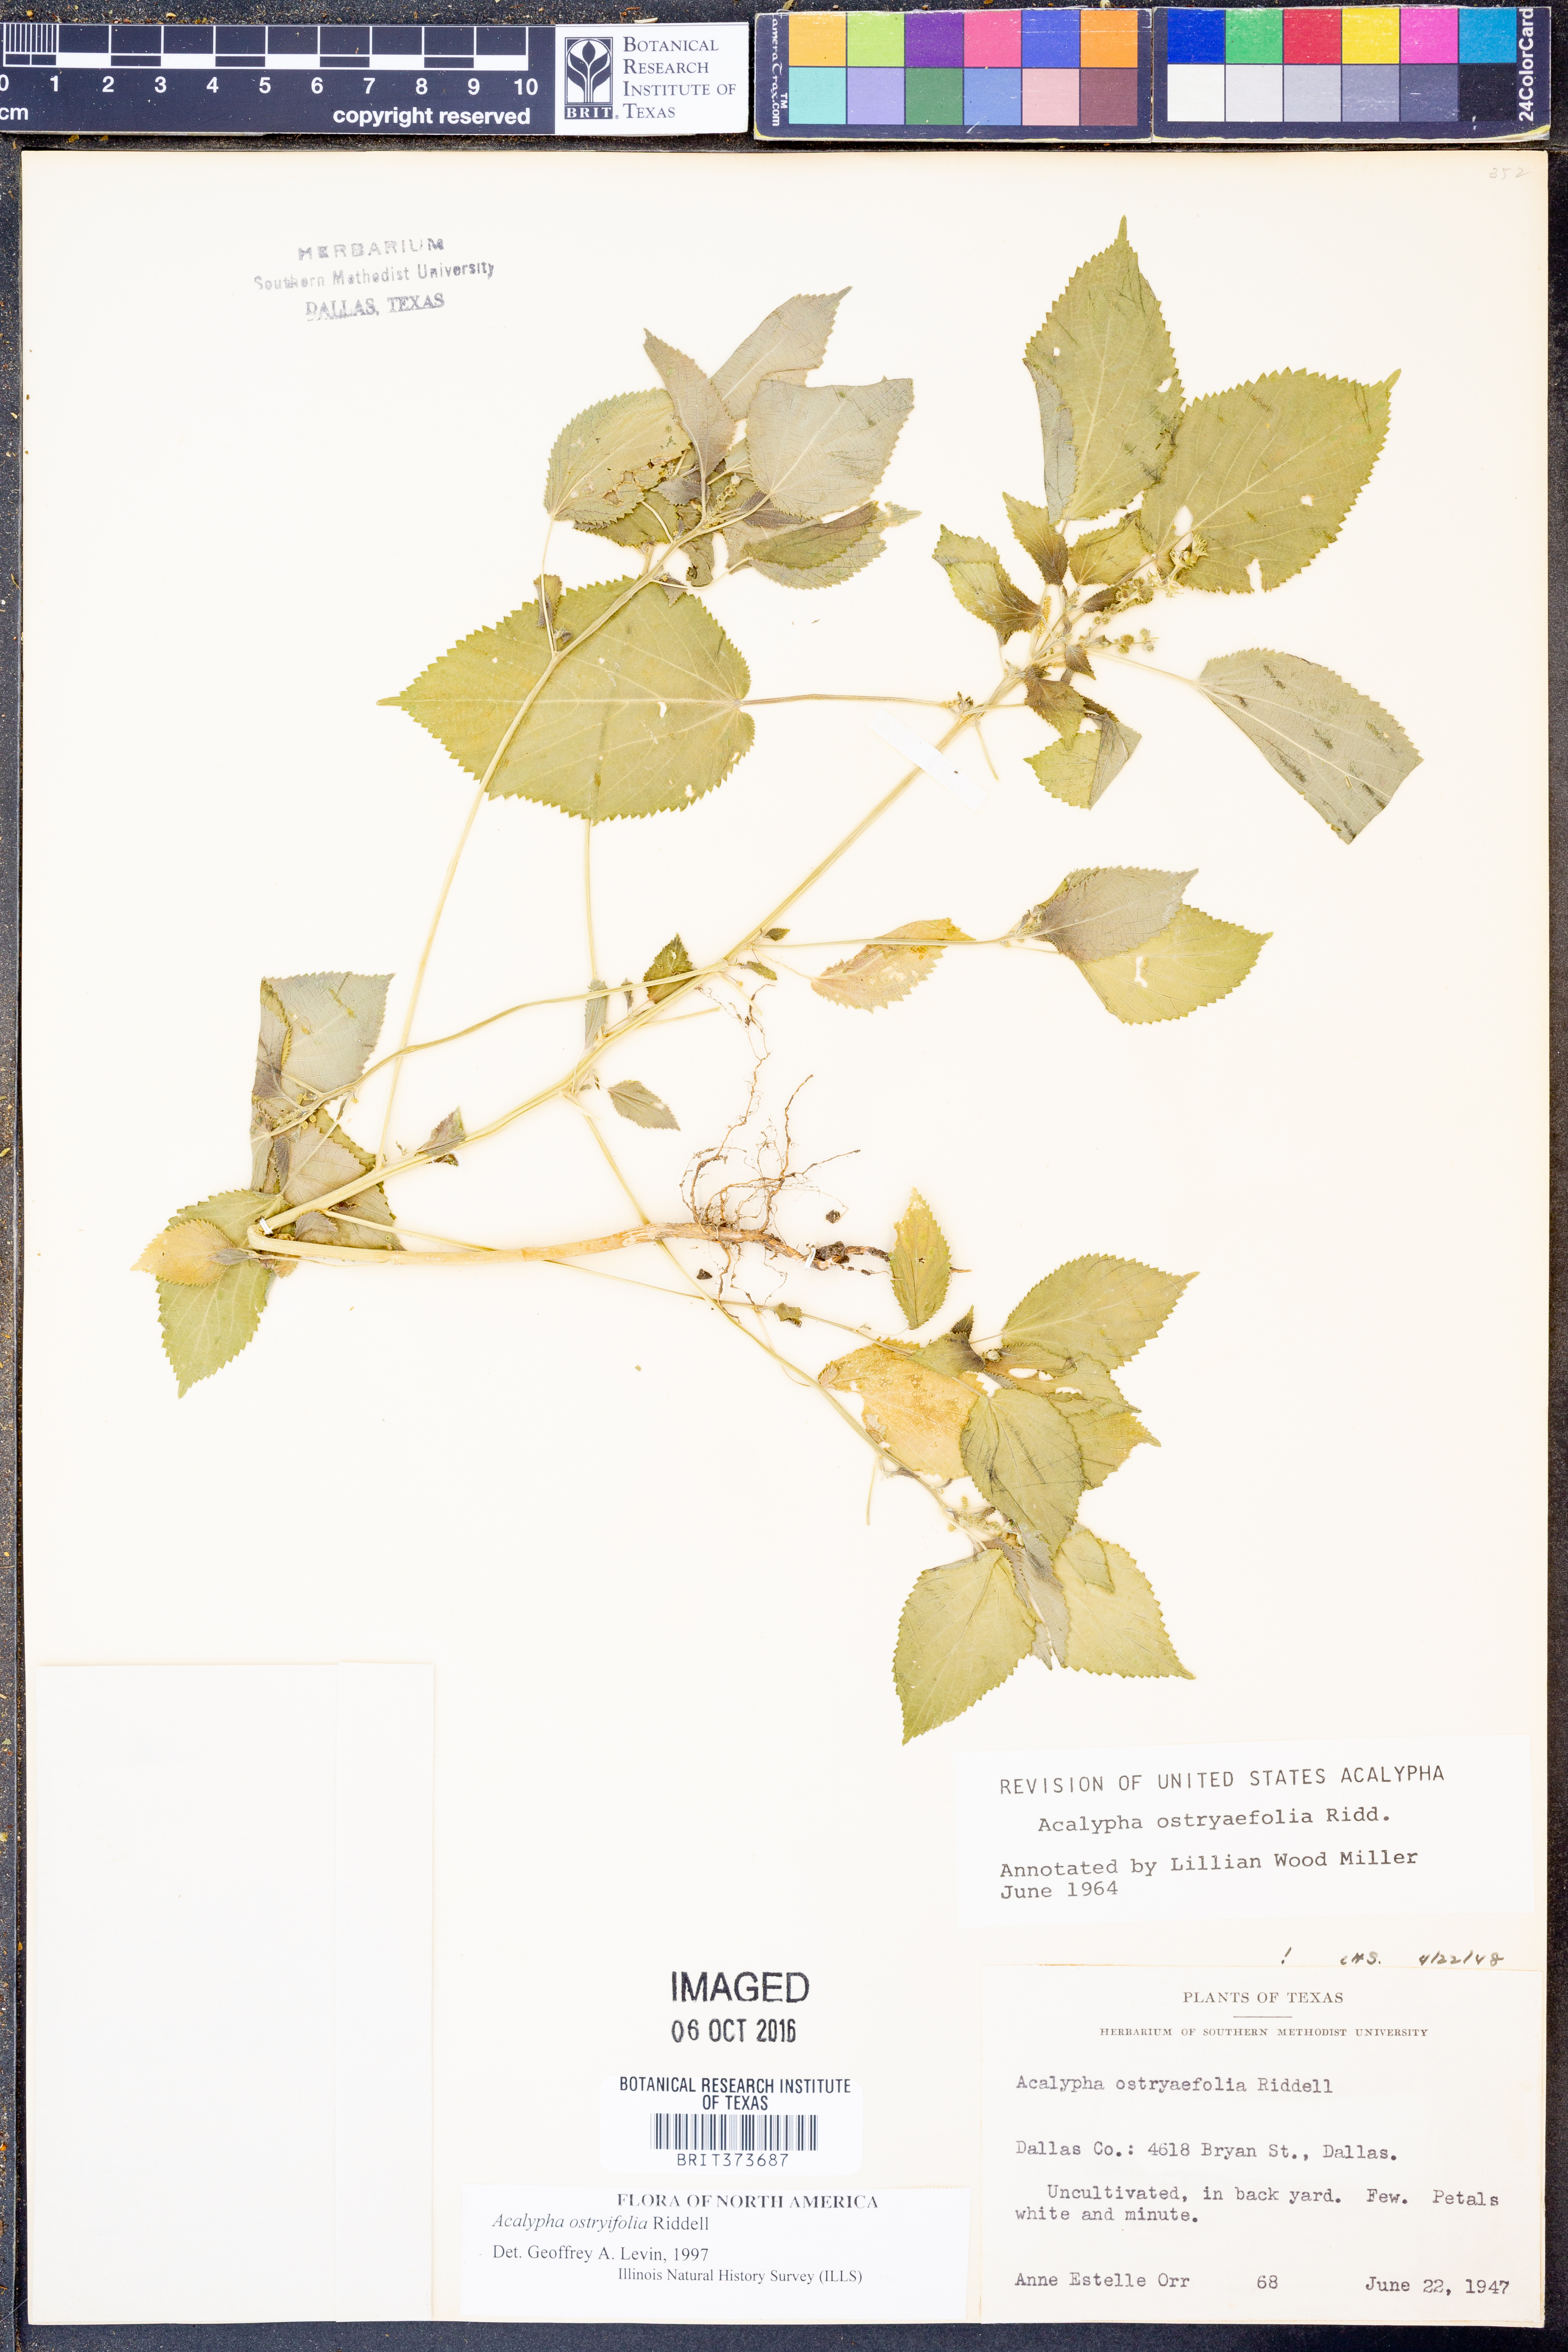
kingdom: Plantae
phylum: Tracheophyta
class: Magnoliopsida
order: Malpighiales
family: Euphorbiaceae
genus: Acalypha
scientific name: Acalypha persimilis
